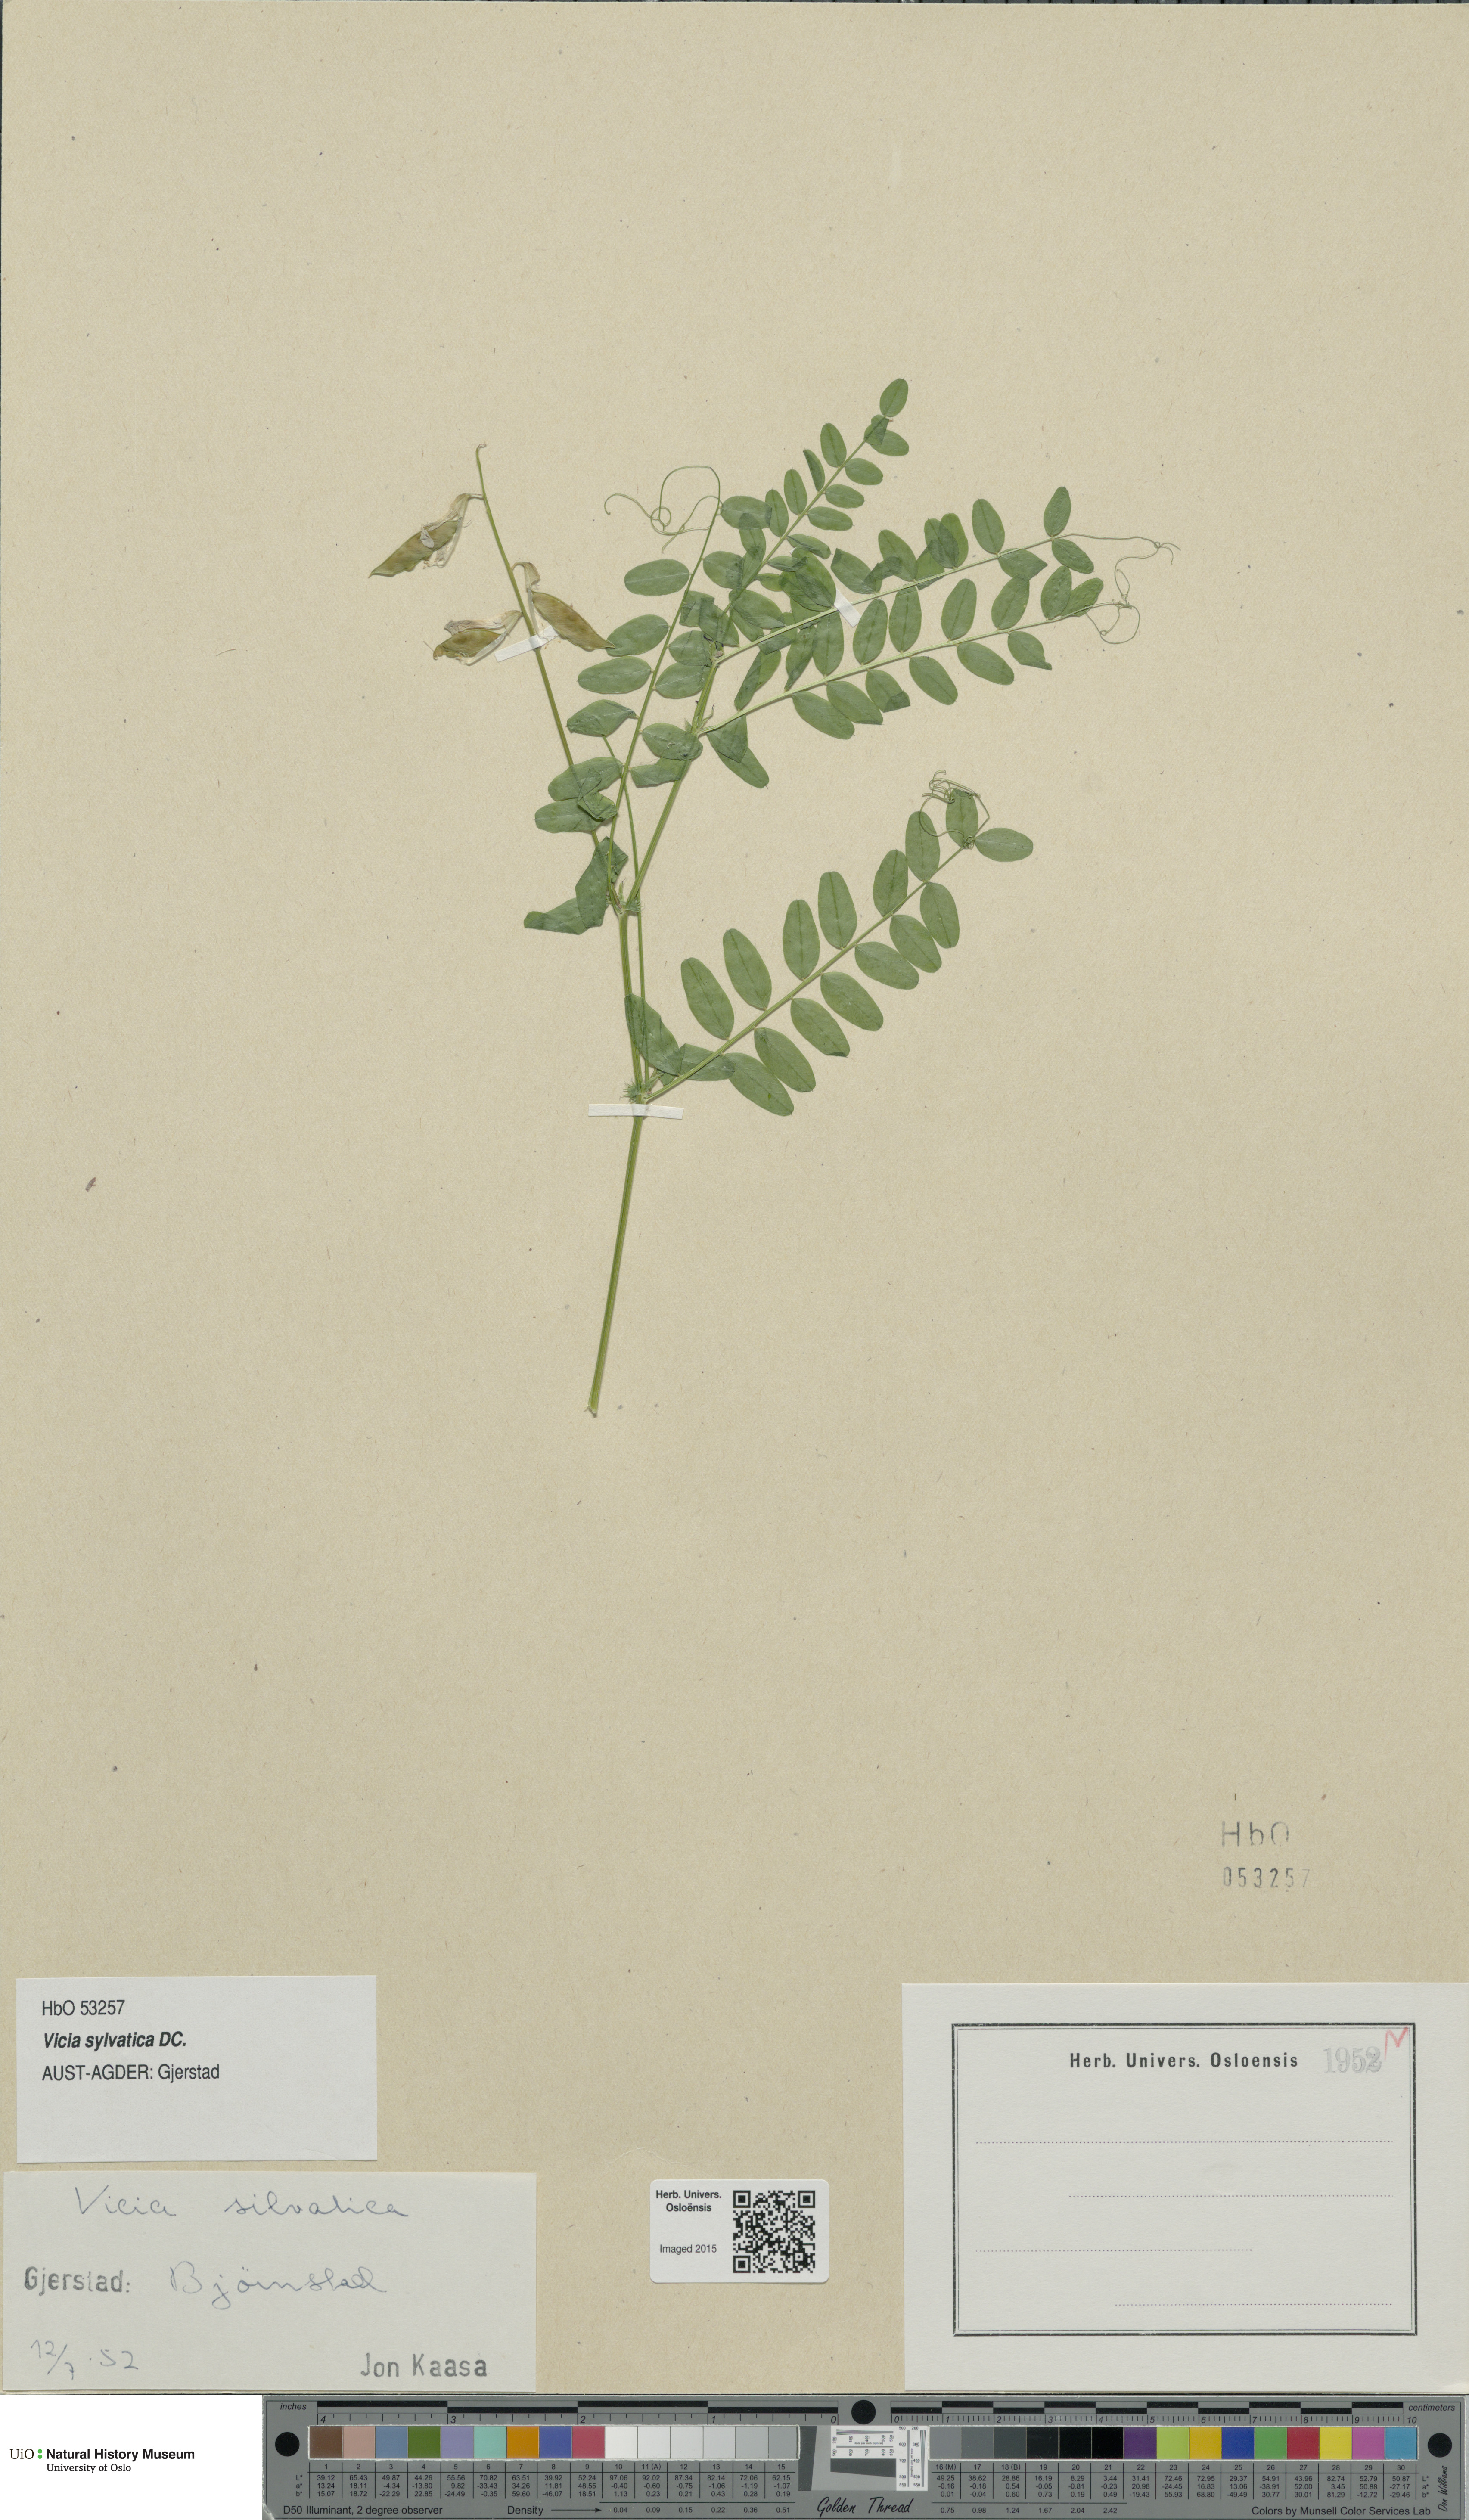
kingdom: Plantae
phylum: Tracheophyta
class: Magnoliopsida
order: Fabales
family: Fabaceae
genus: Vicia
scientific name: Vicia sylvatica
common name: Wood vetch
